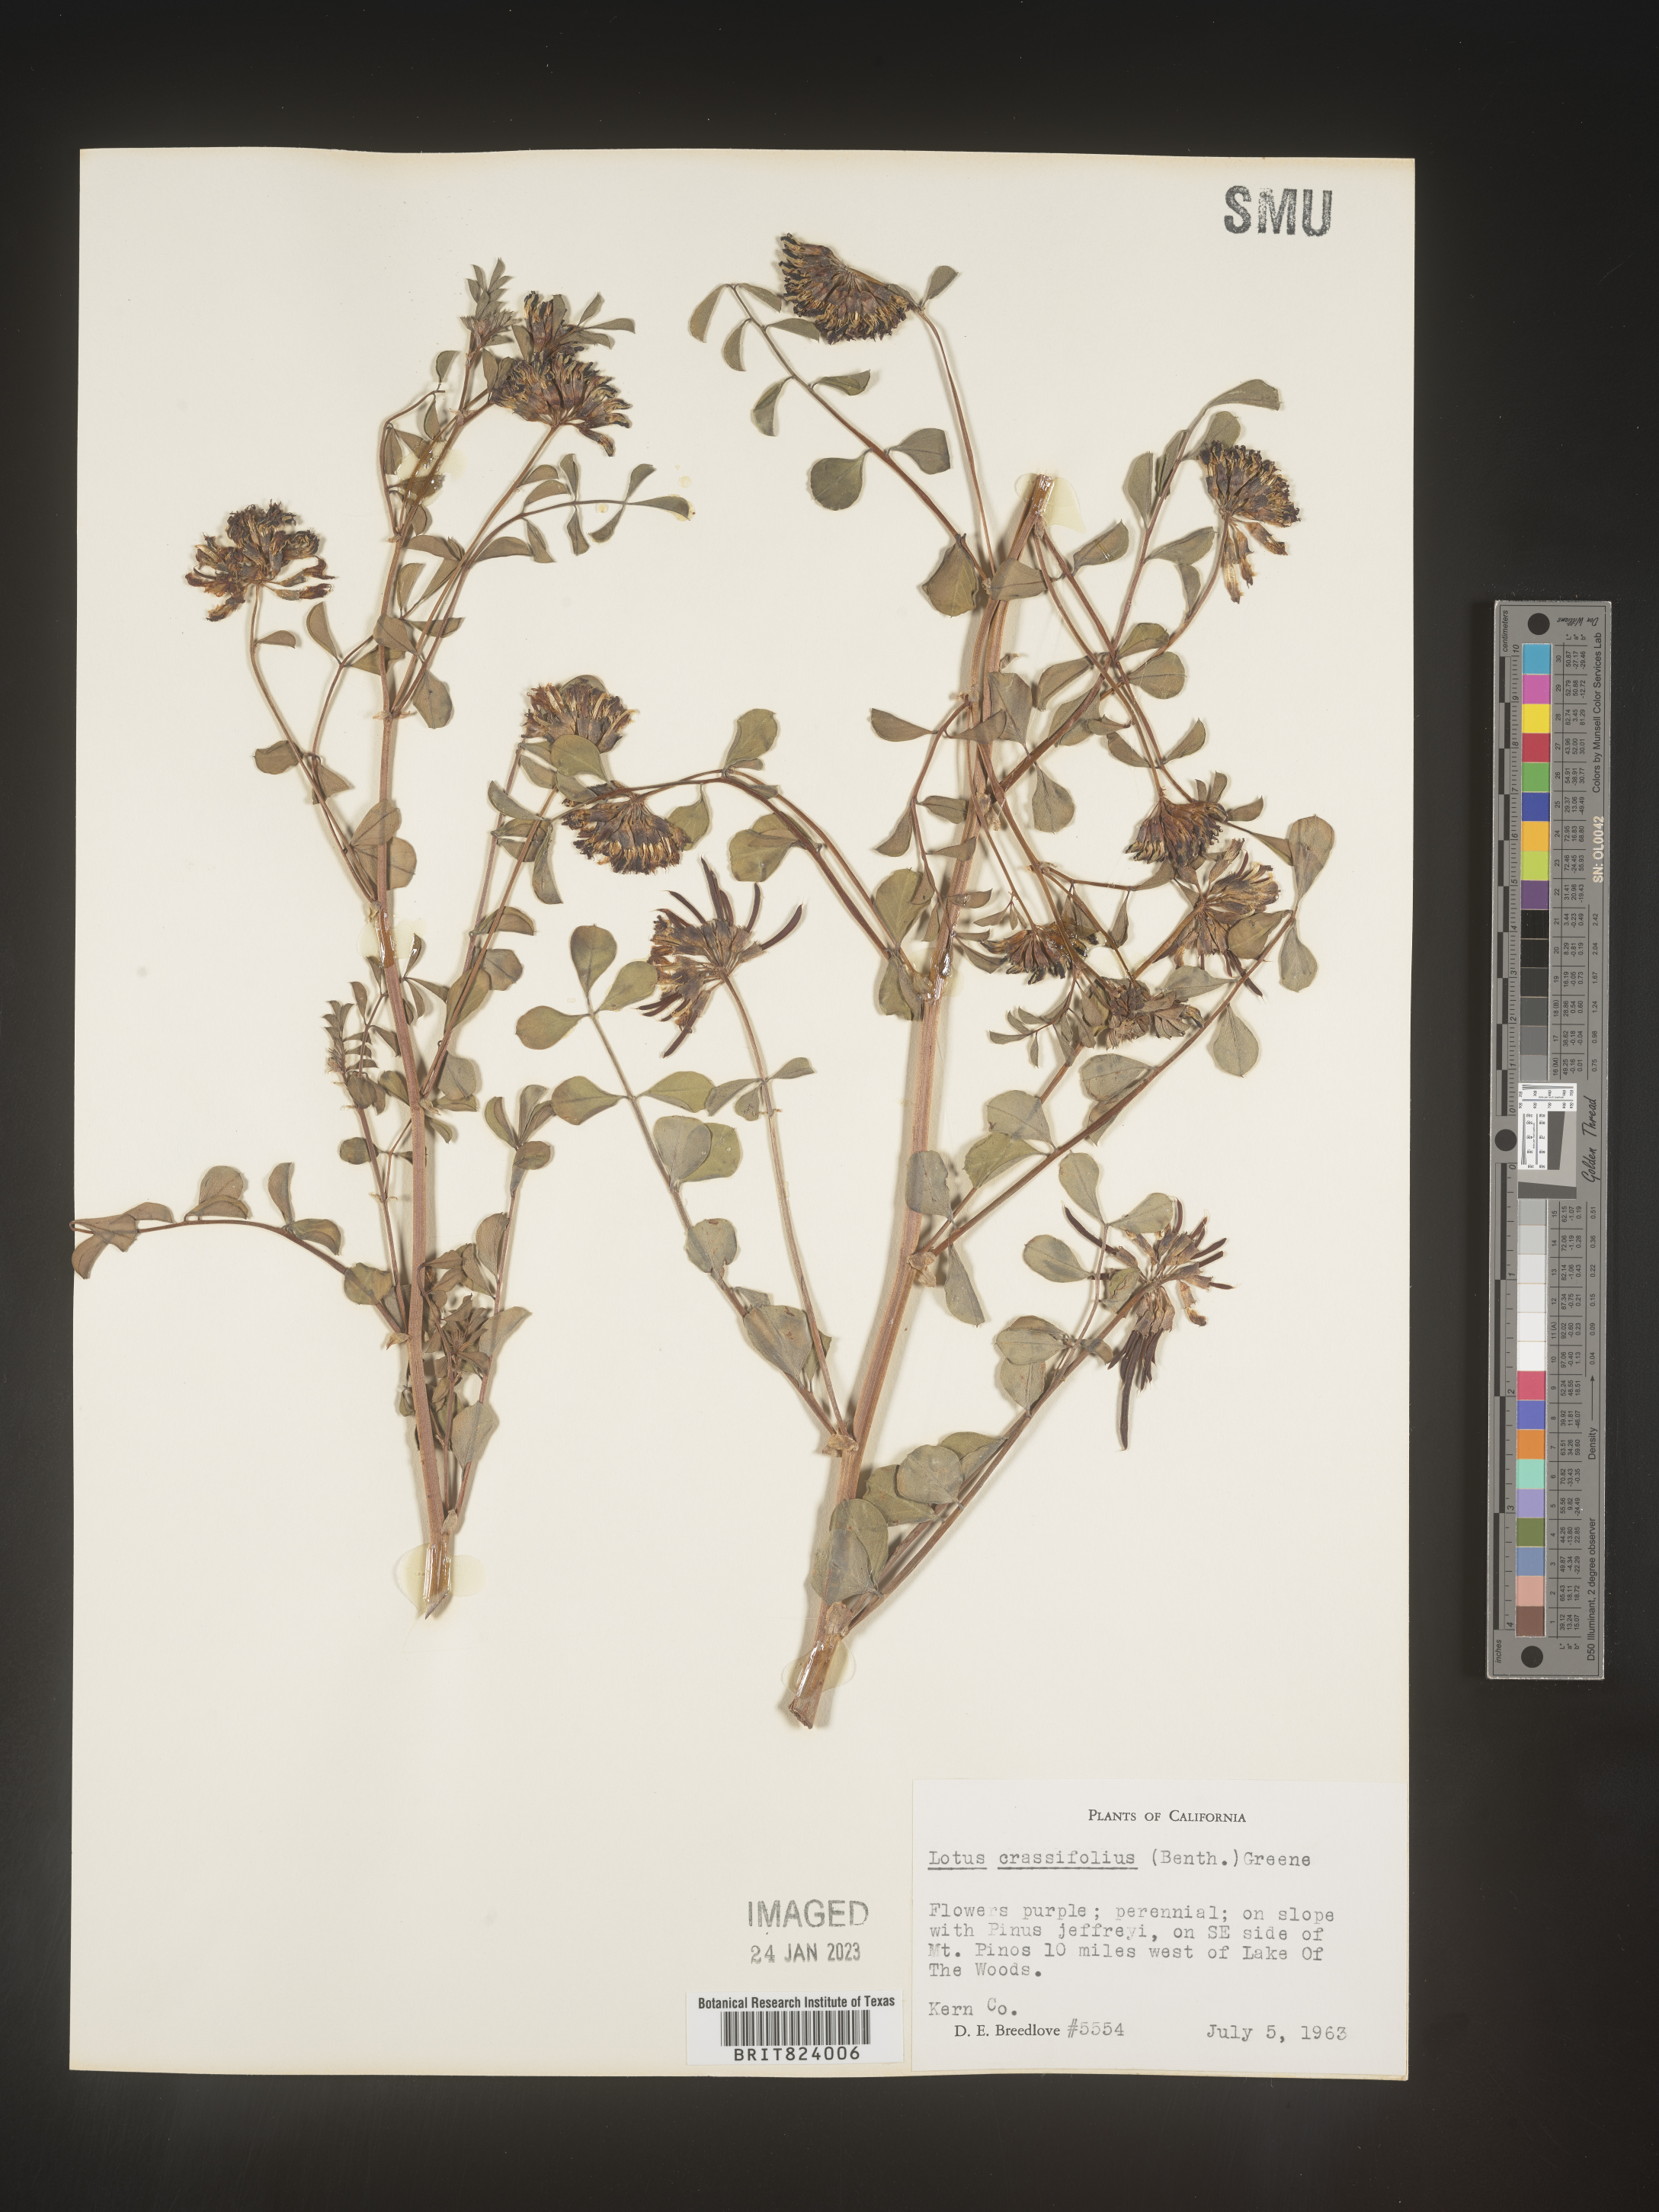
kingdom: Plantae
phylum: Tracheophyta
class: Magnoliopsida
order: Fabales
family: Fabaceae
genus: Hosackia
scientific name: Hosackia crassifolia
